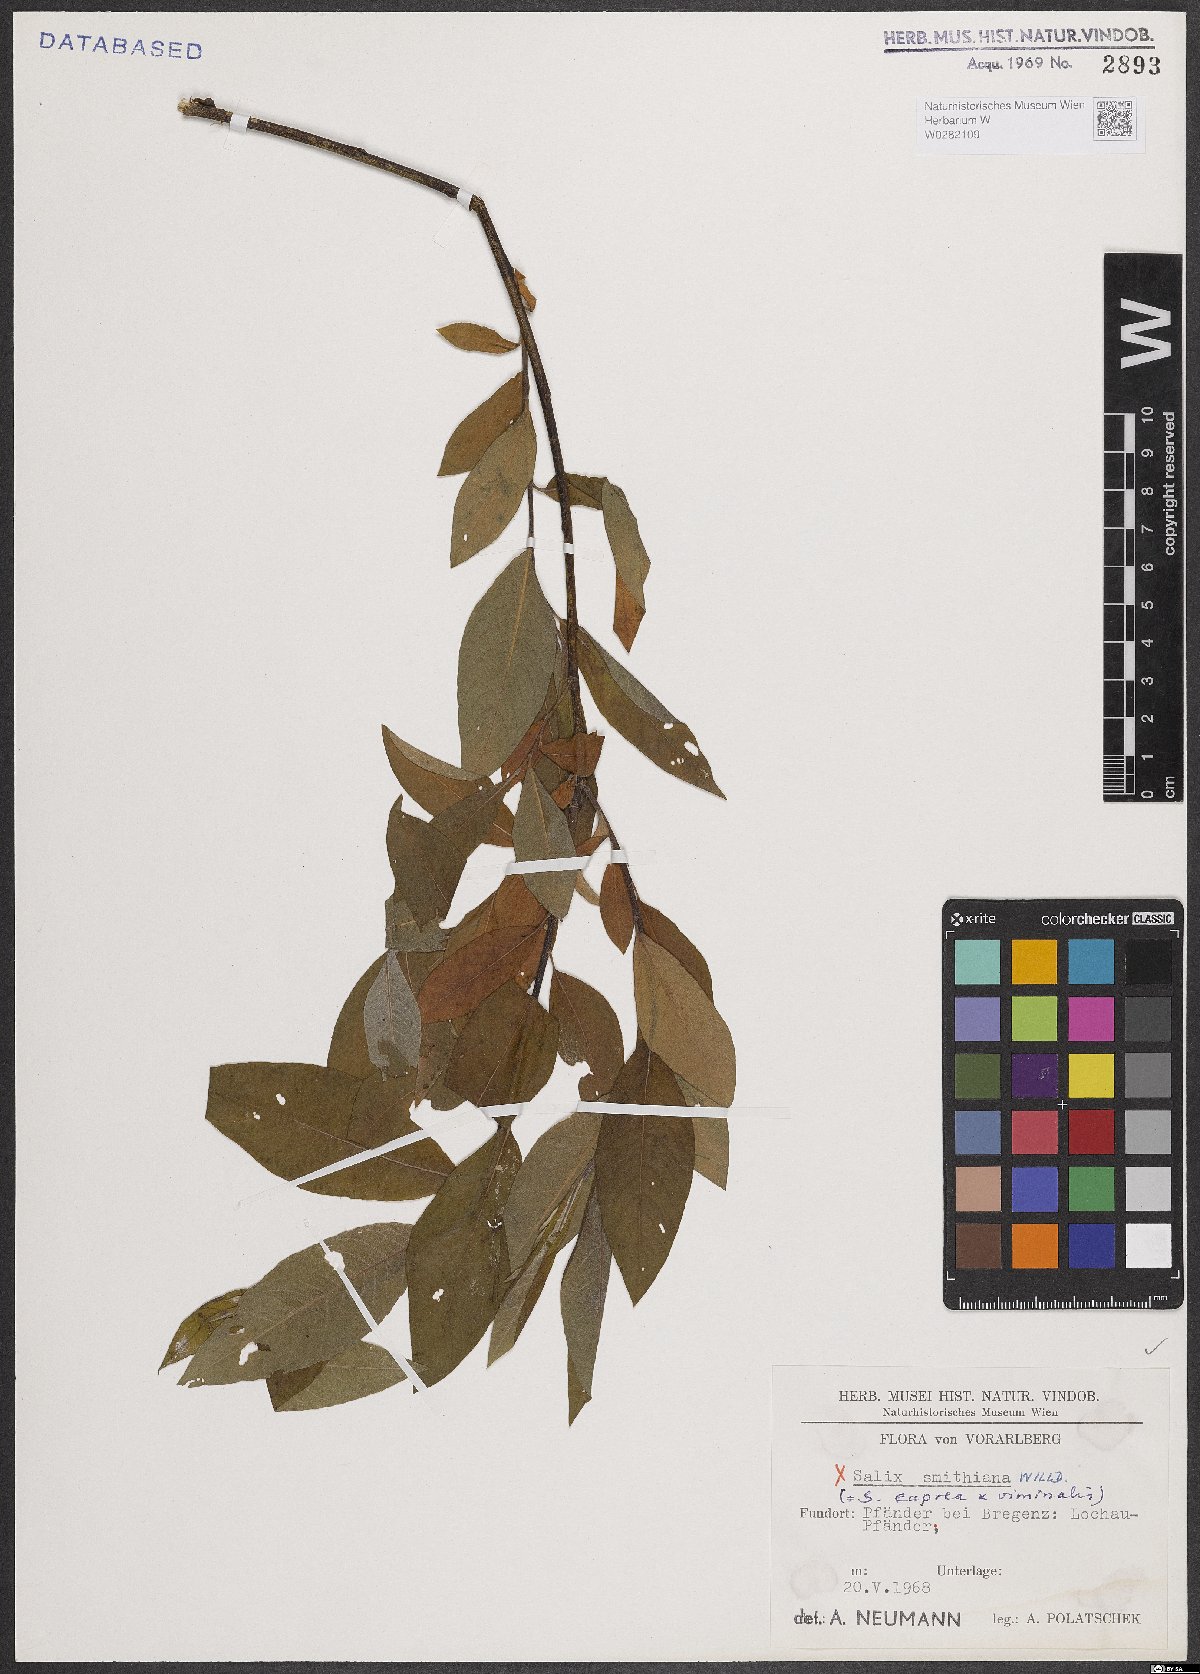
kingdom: Plantae
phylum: Tracheophyta
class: Magnoliopsida
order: Malpighiales
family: Salicaceae
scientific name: Salicaceae
